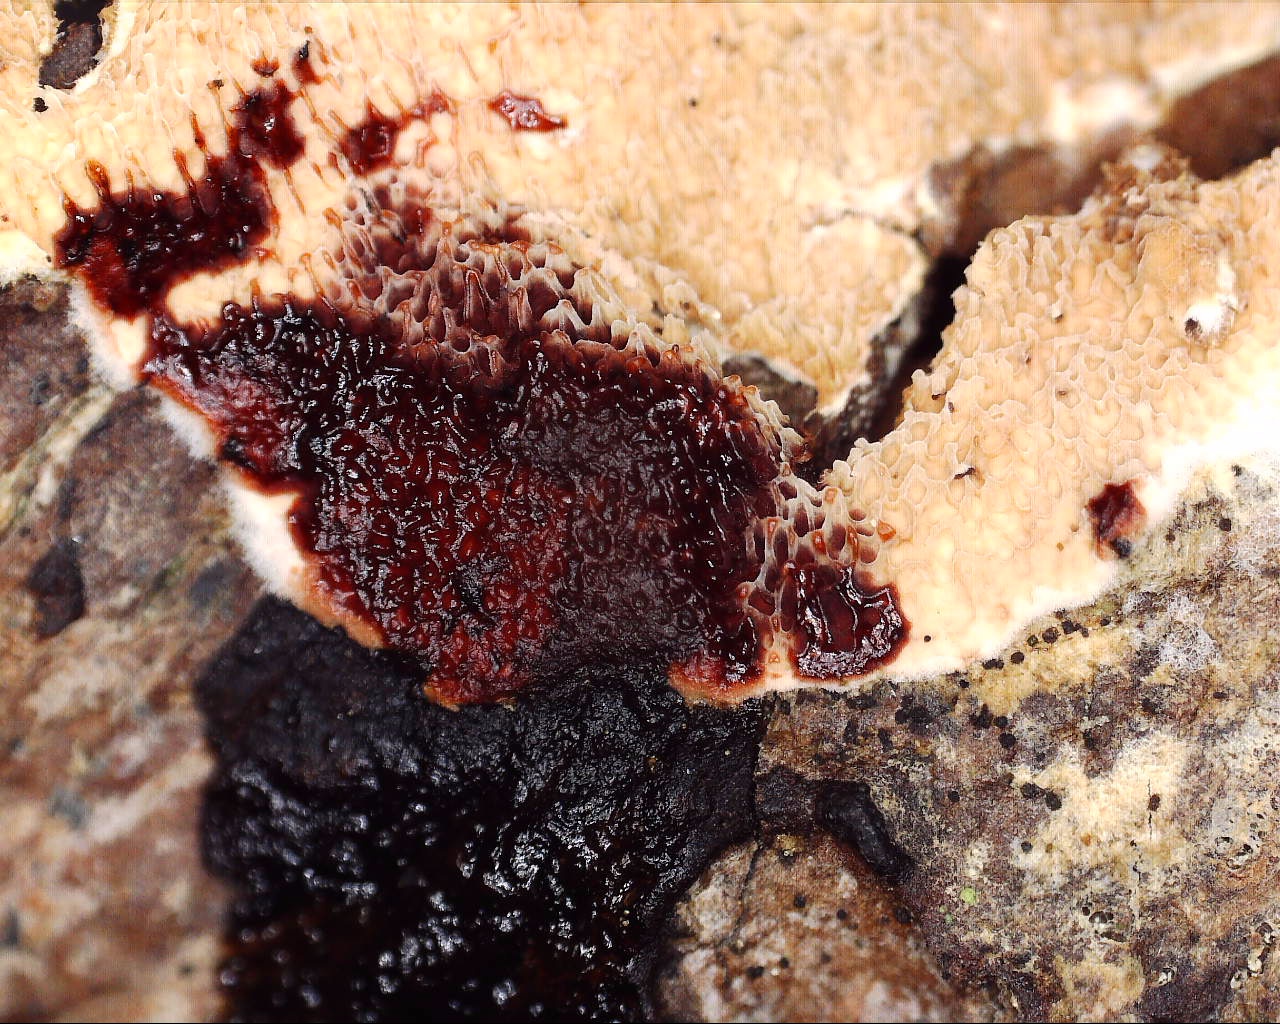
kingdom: Fungi
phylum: Basidiomycota
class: Agaricomycetes
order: Polyporales
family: Irpicaceae
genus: Meruliopsis
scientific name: Meruliopsis taxicola
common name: purpurbrun foldporesvamp
